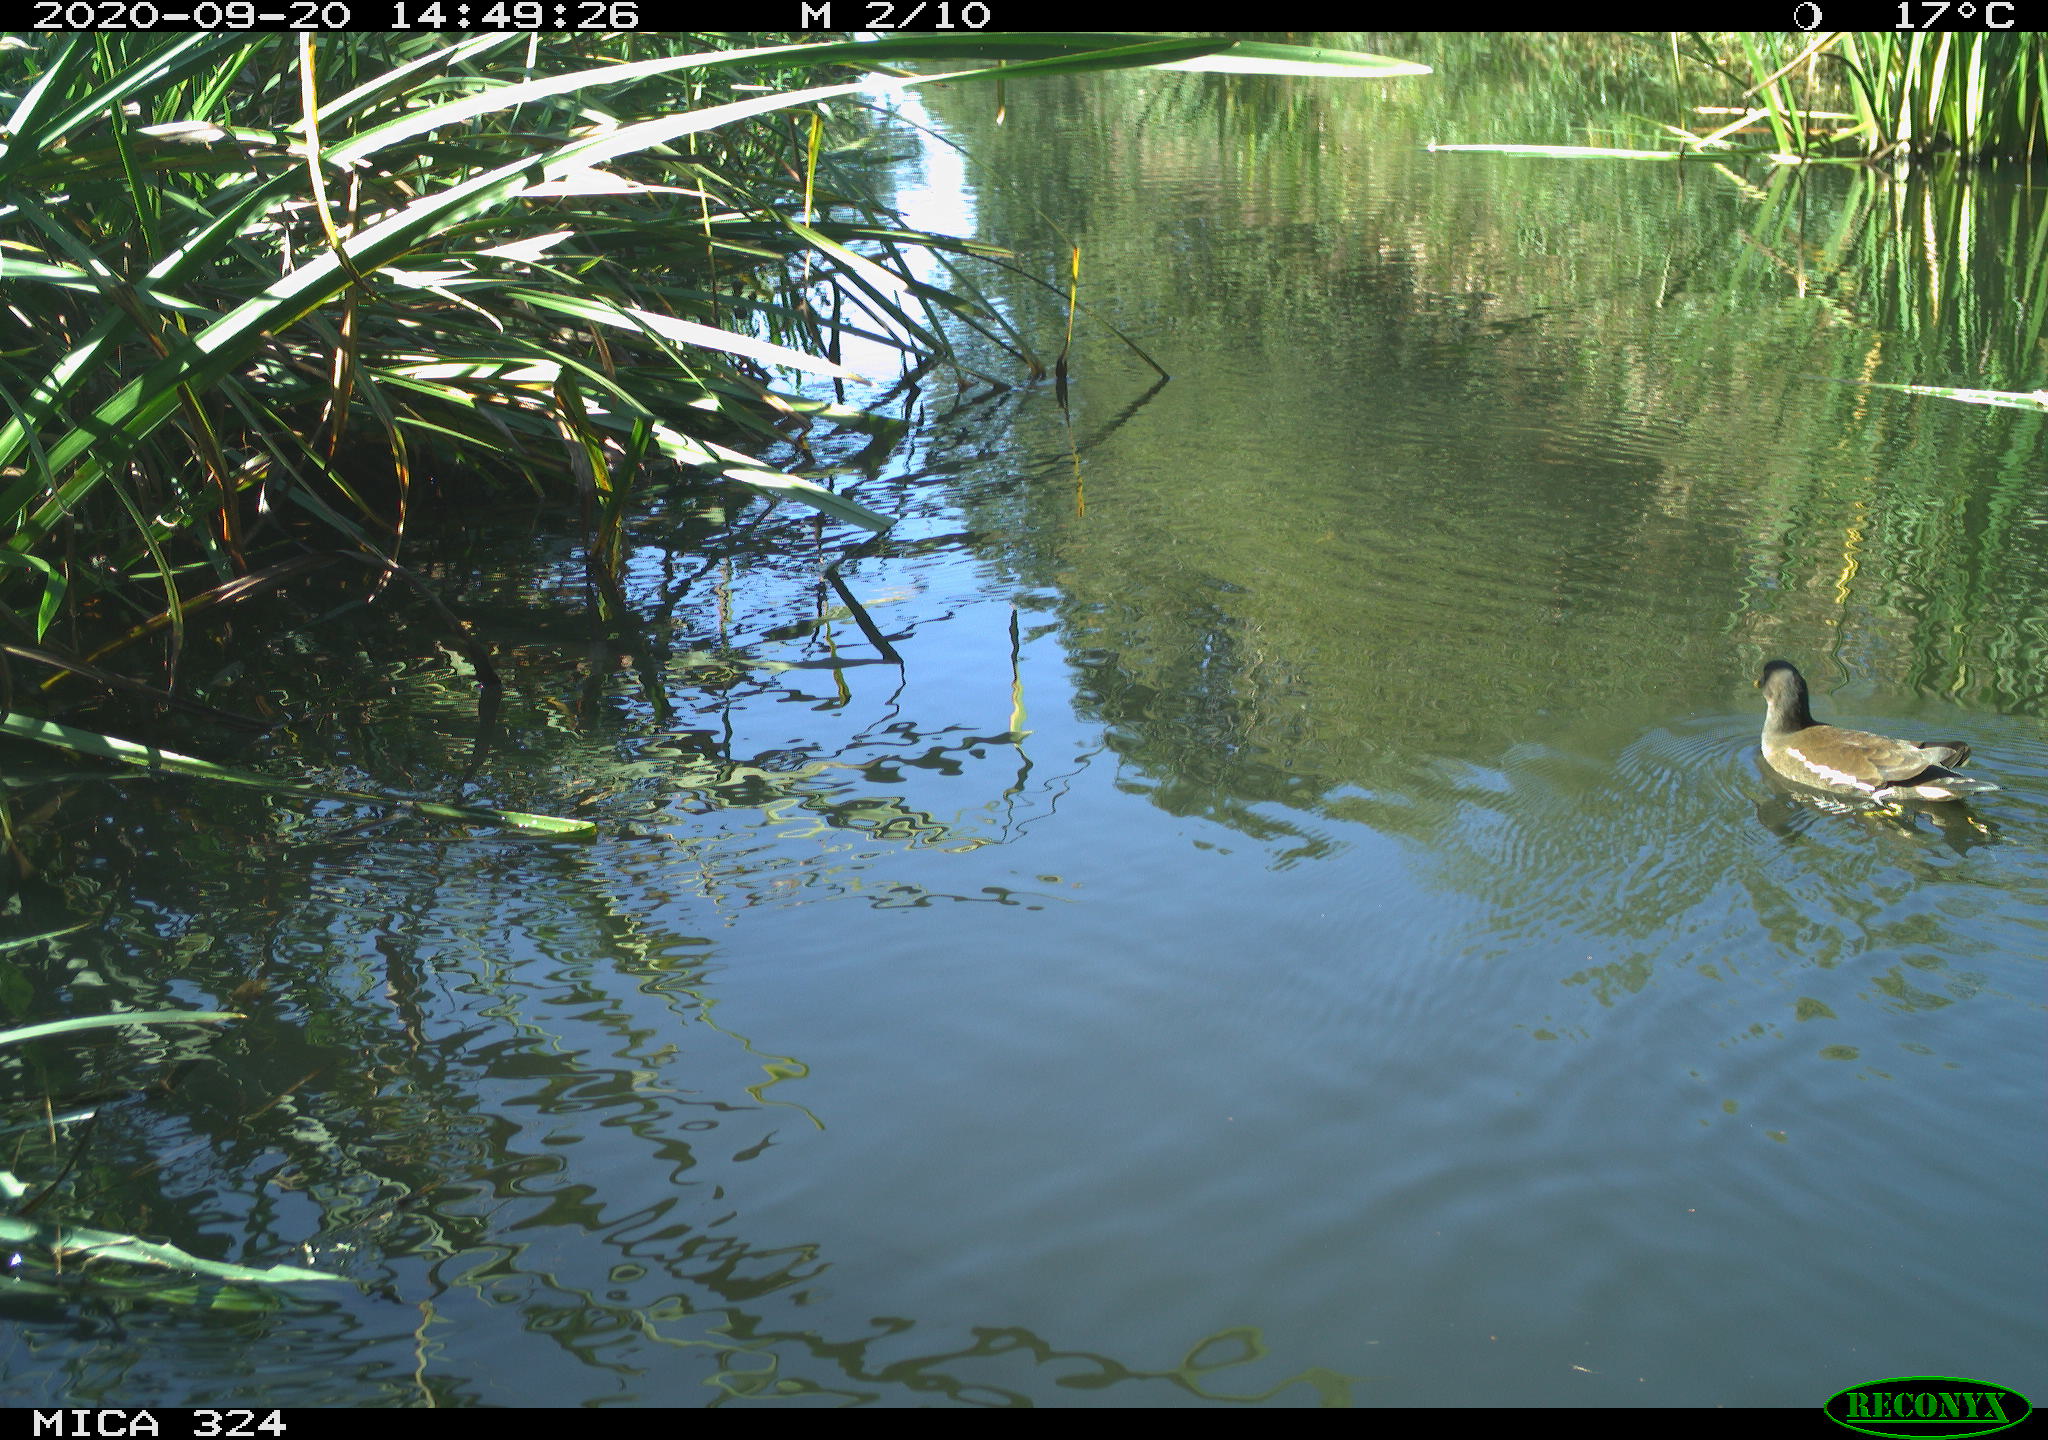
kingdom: Animalia
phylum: Chordata
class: Aves
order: Gruiformes
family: Rallidae
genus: Gallinula
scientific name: Gallinula chloropus
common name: Common moorhen
